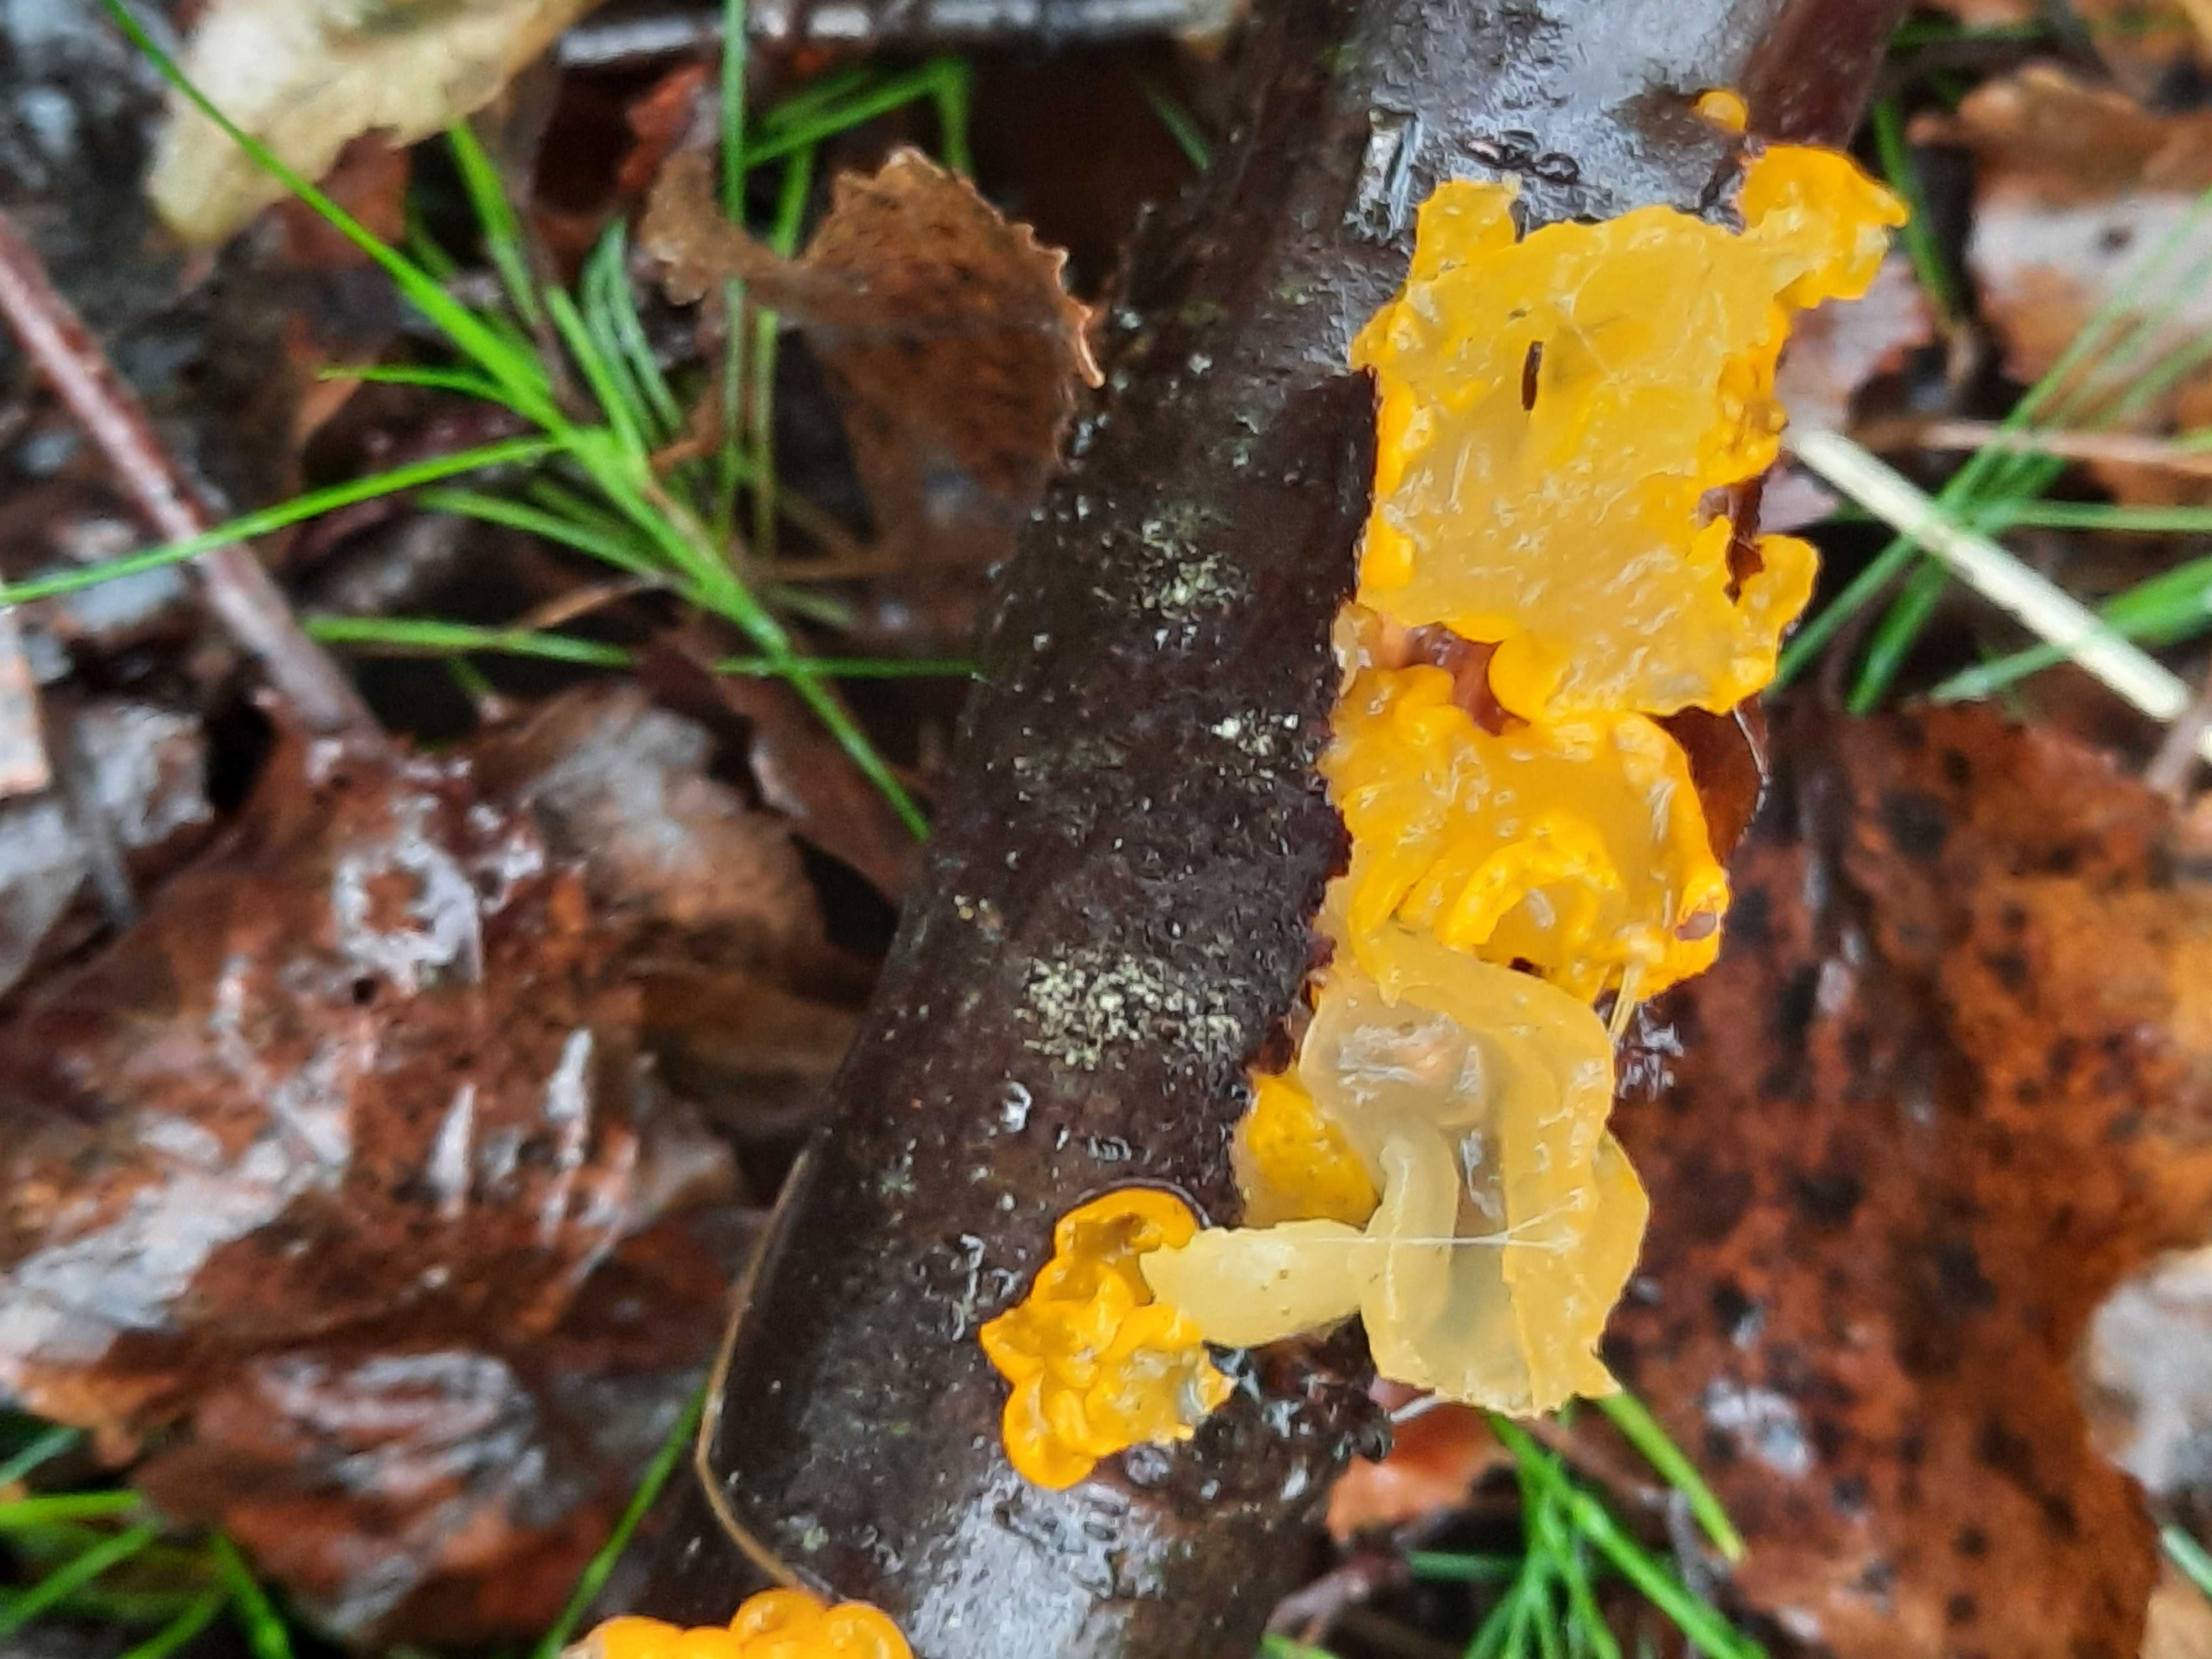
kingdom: Fungi
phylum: Basidiomycota
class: Tremellomycetes
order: Tremellales
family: Tremellaceae
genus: Tremella
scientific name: Tremella mesenterica
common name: gul bævresvamp
